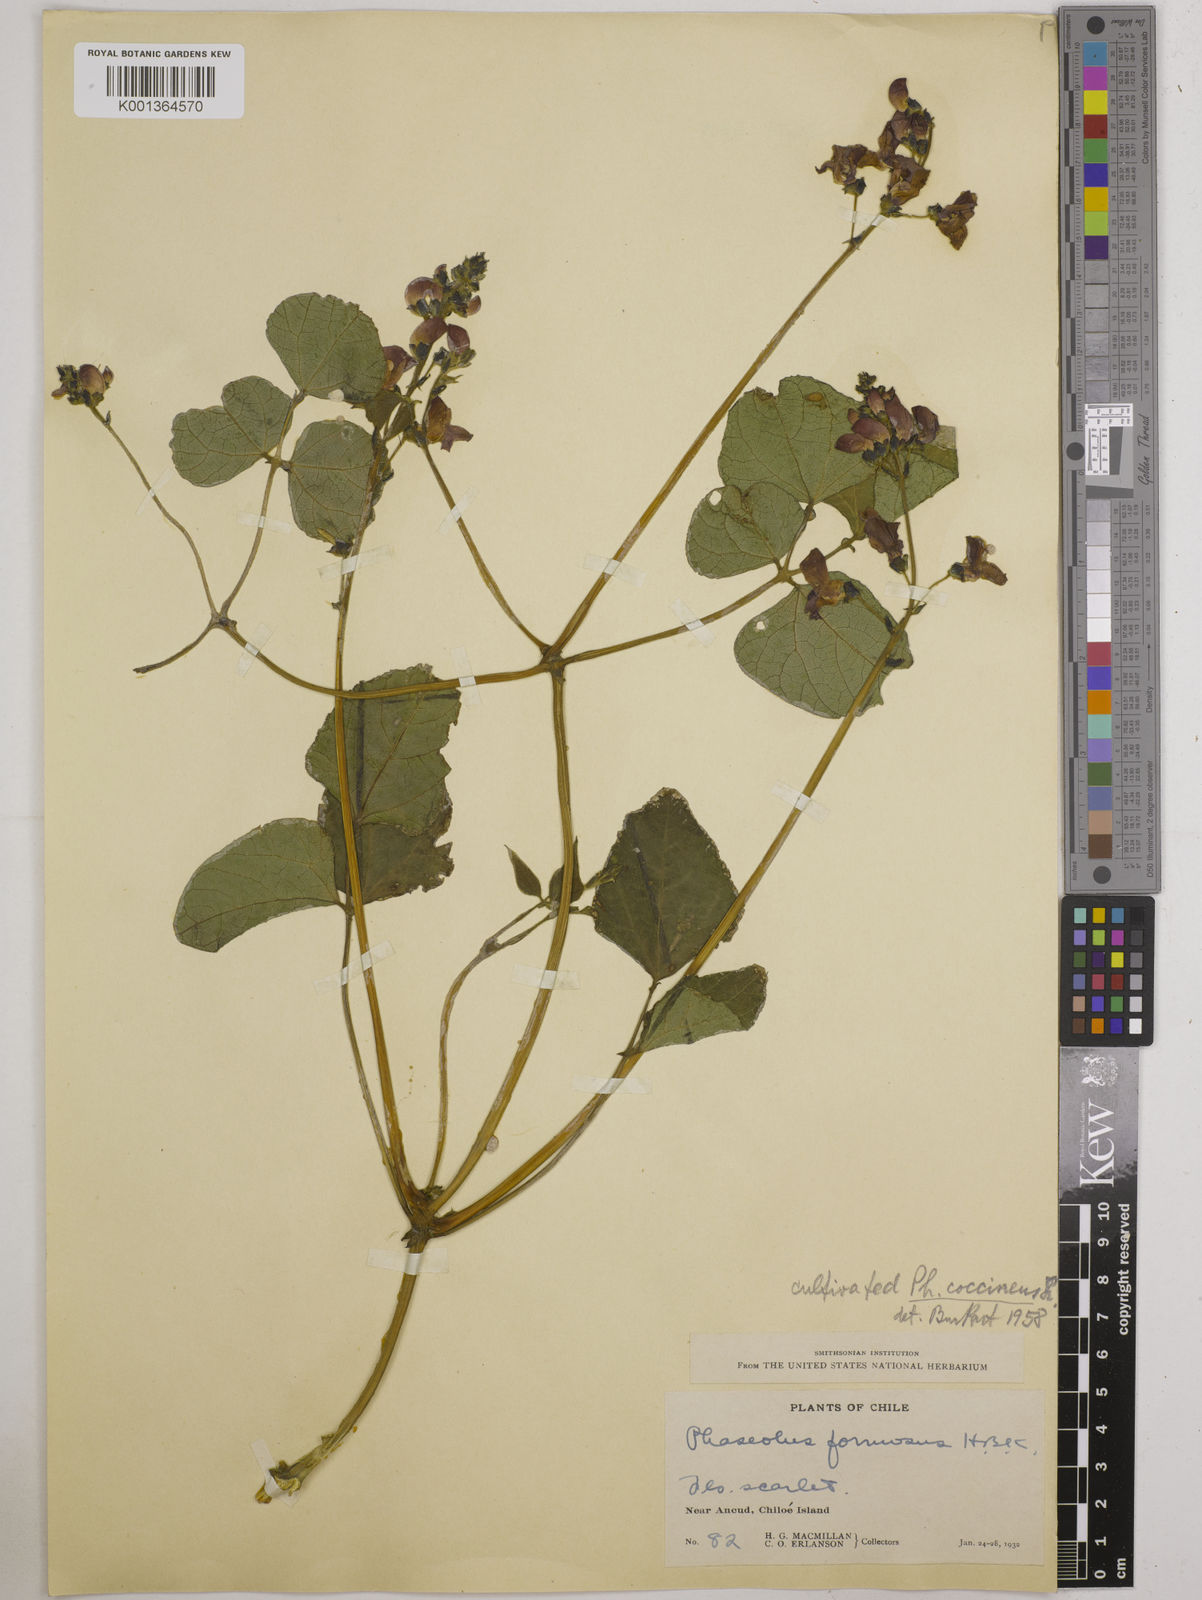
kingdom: Plantae
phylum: Tracheophyta
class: Magnoliopsida
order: Fabales
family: Fabaceae
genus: Phaseolus
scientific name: Phaseolus coccineus
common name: Runner bean
